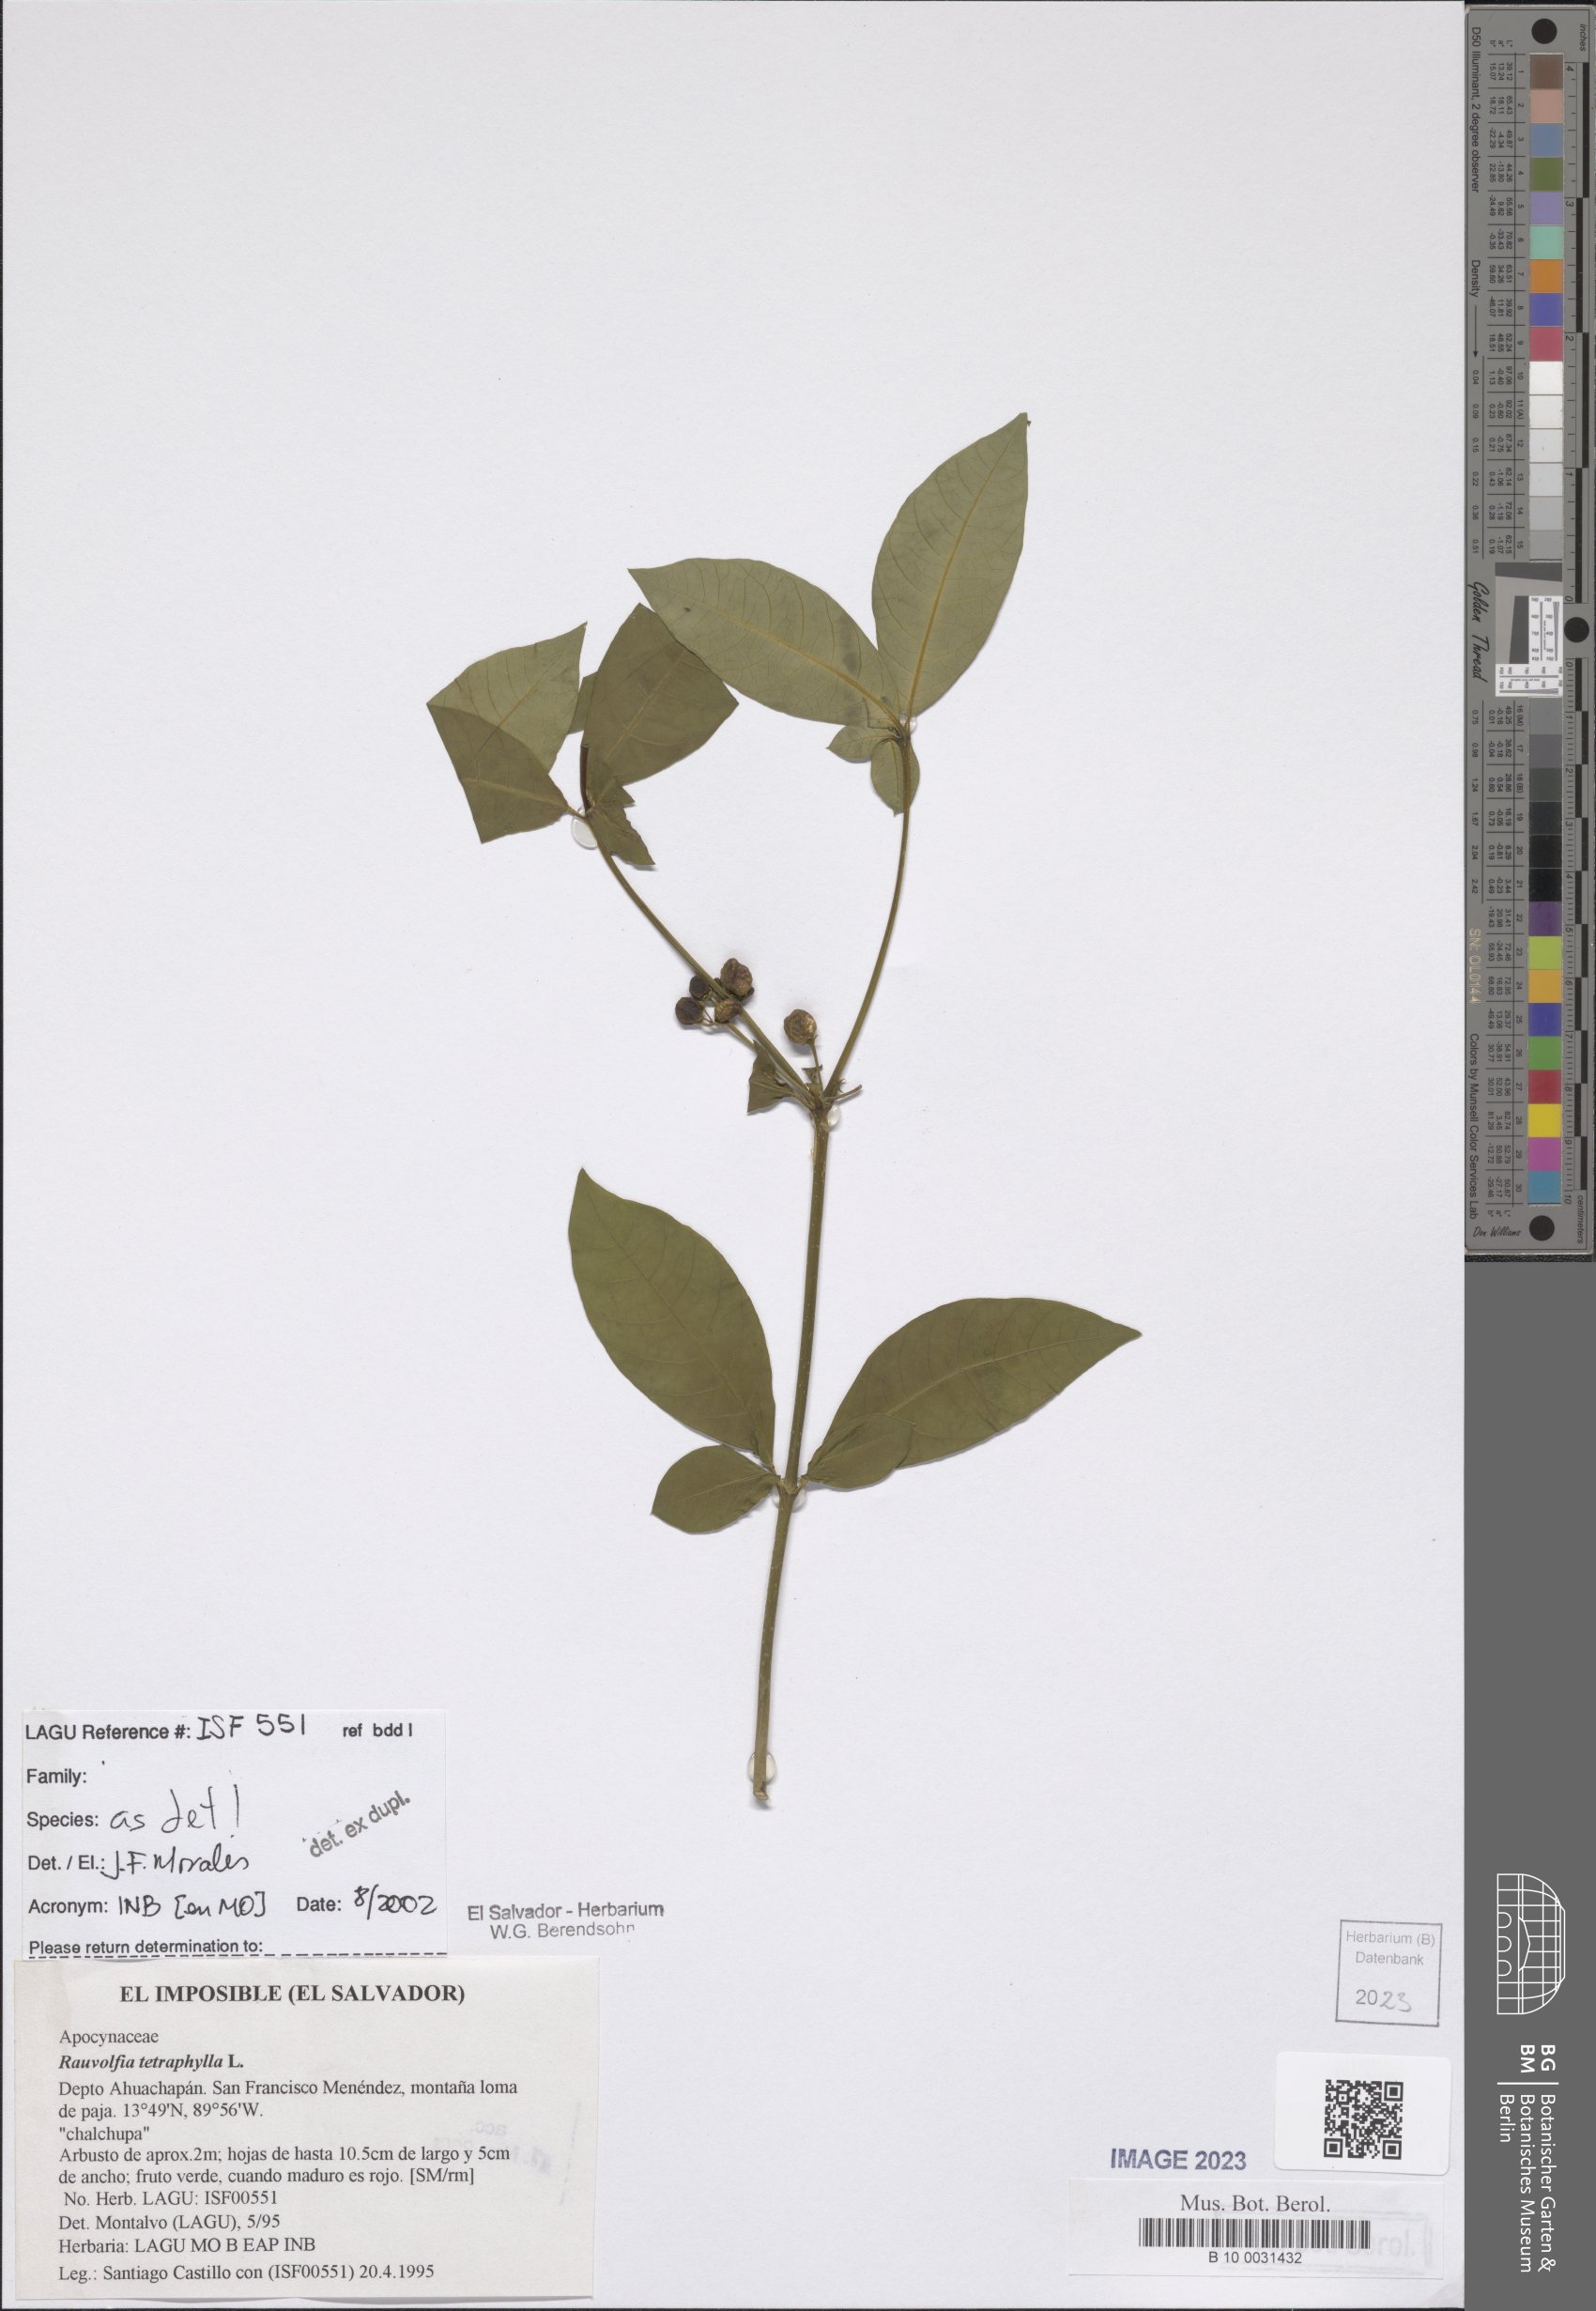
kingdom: Plantae
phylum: Tracheophyta
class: Magnoliopsida
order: Gentianales
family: Apocynaceae
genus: Rauvolfia
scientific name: Rauvolfia tetraphylla
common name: Four-leaf devil-pepper
